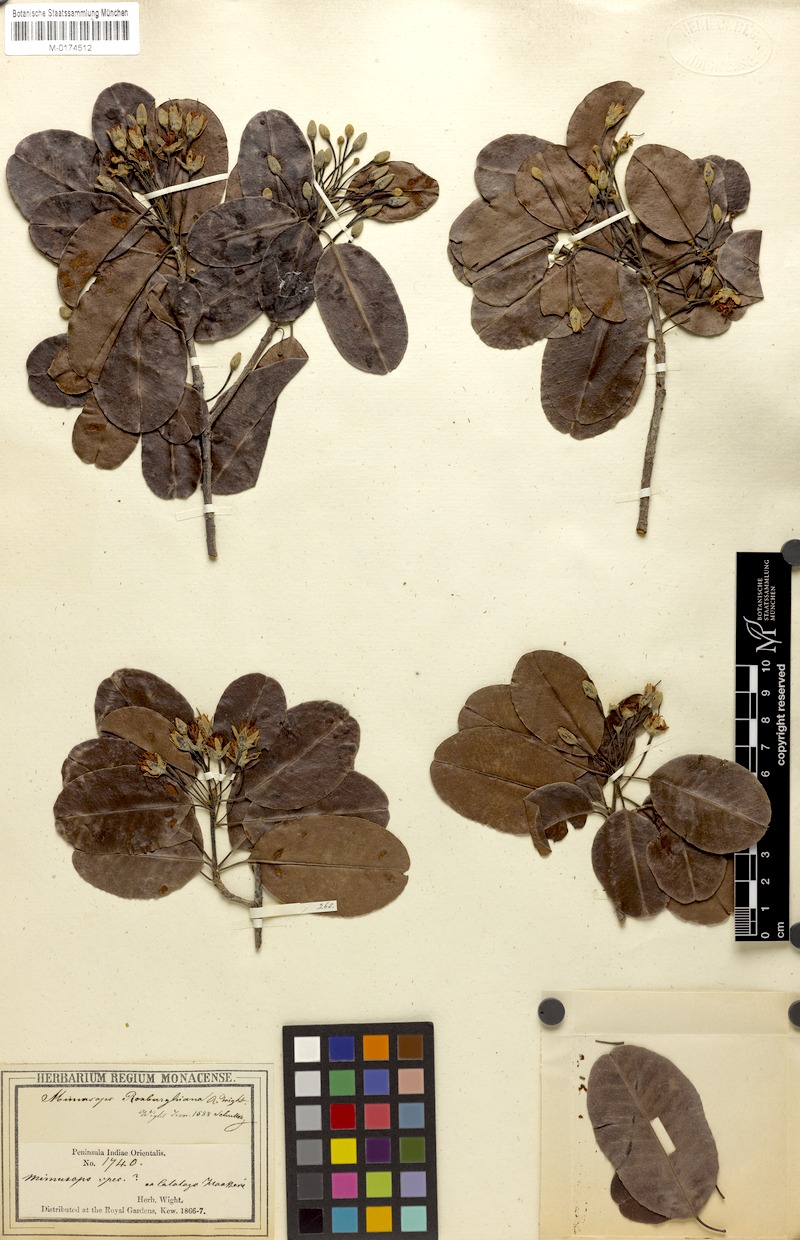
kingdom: Plantae
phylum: Tracheophyta
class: Magnoliopsida
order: Ericales
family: Sapotaceae
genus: Manilkara
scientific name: Manilkara roxburghiana
